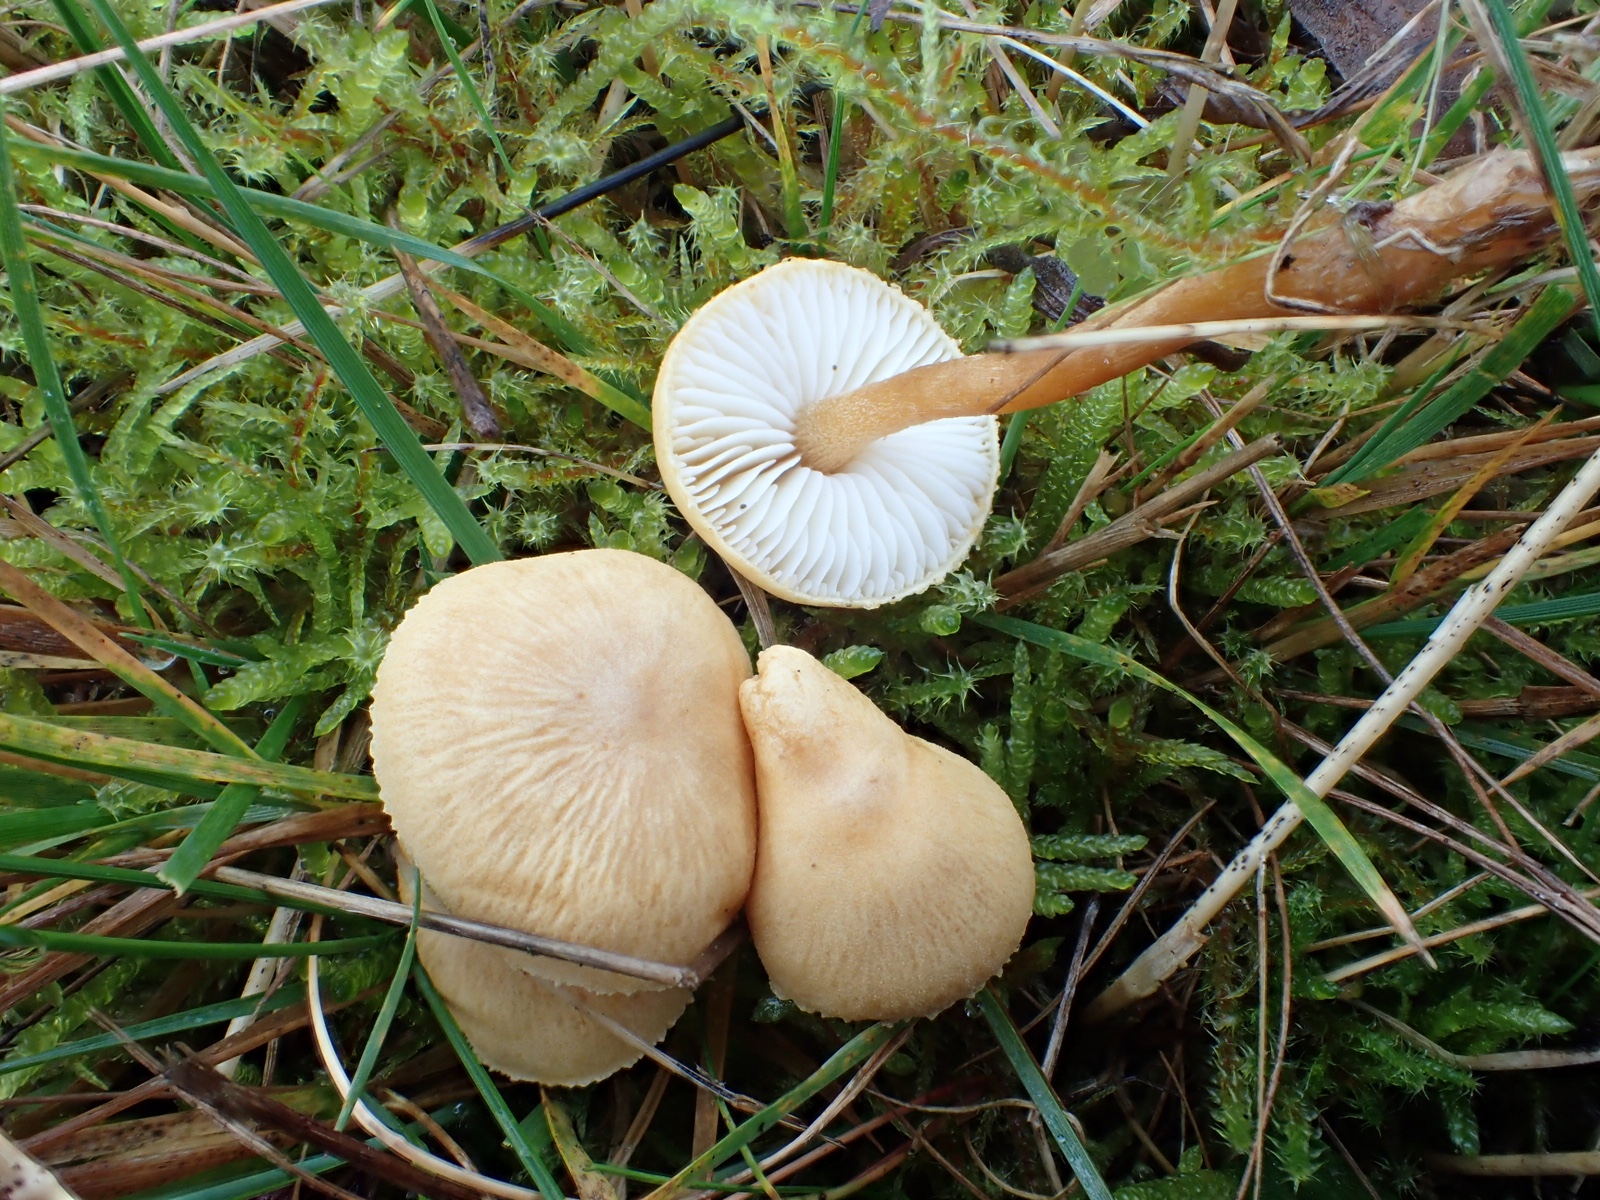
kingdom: Fungi
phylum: Basidiomycota
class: Agaricomycetes
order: Agaricales
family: Tricholomataceae
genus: Cystoderma
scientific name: Cystoderma amianthinum
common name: okkergul grynhat
